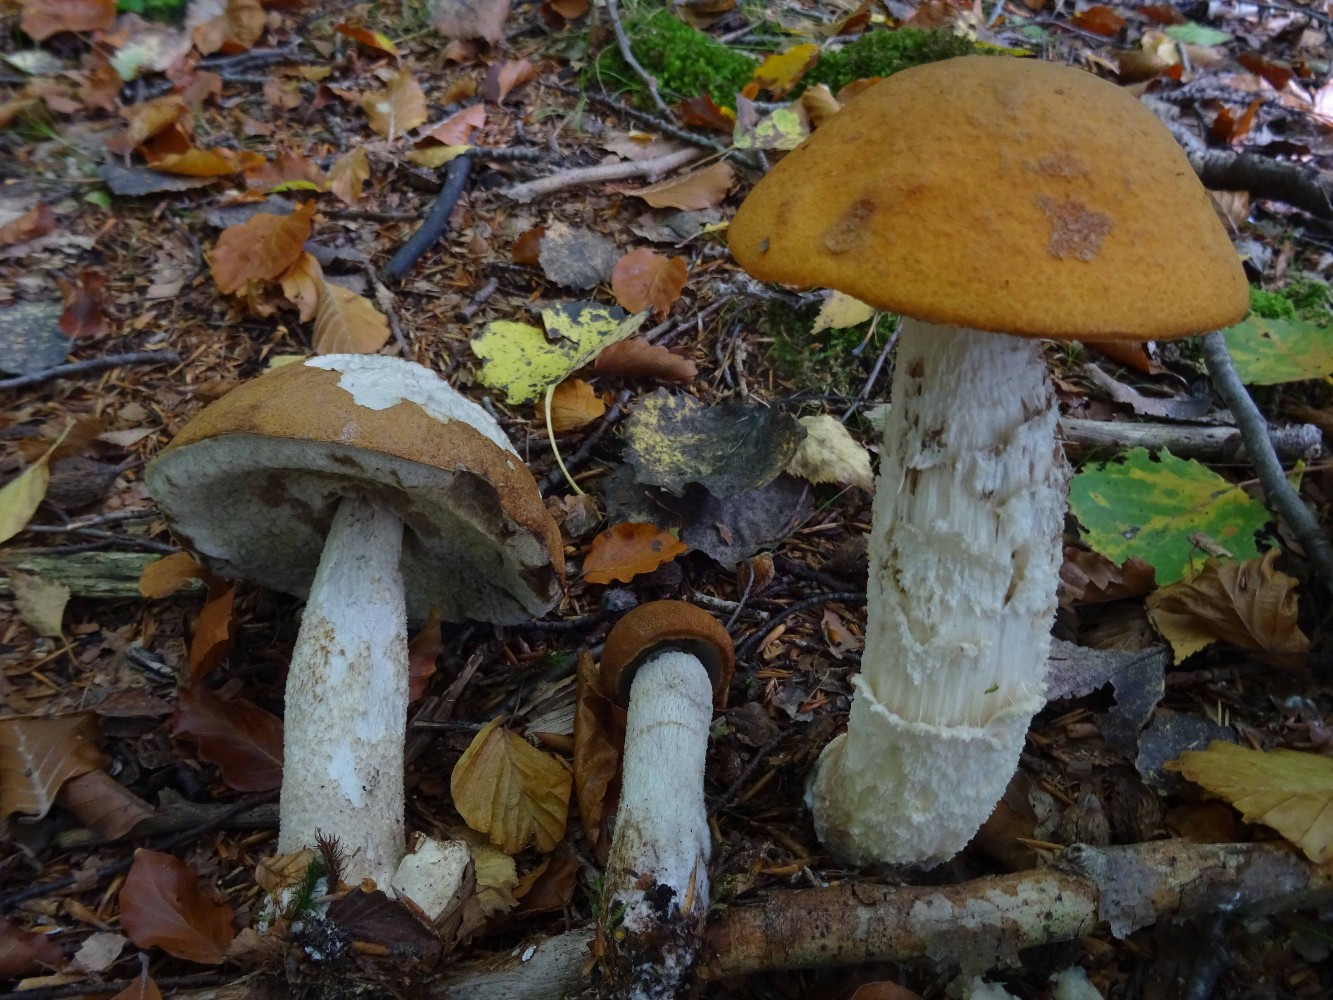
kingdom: Fungi
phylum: Basidiomycota
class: Agaricomycetes
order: Boletales
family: Boletaceae
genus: Leccinum
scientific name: Leccinum versipelle
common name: orange skælrørhat
